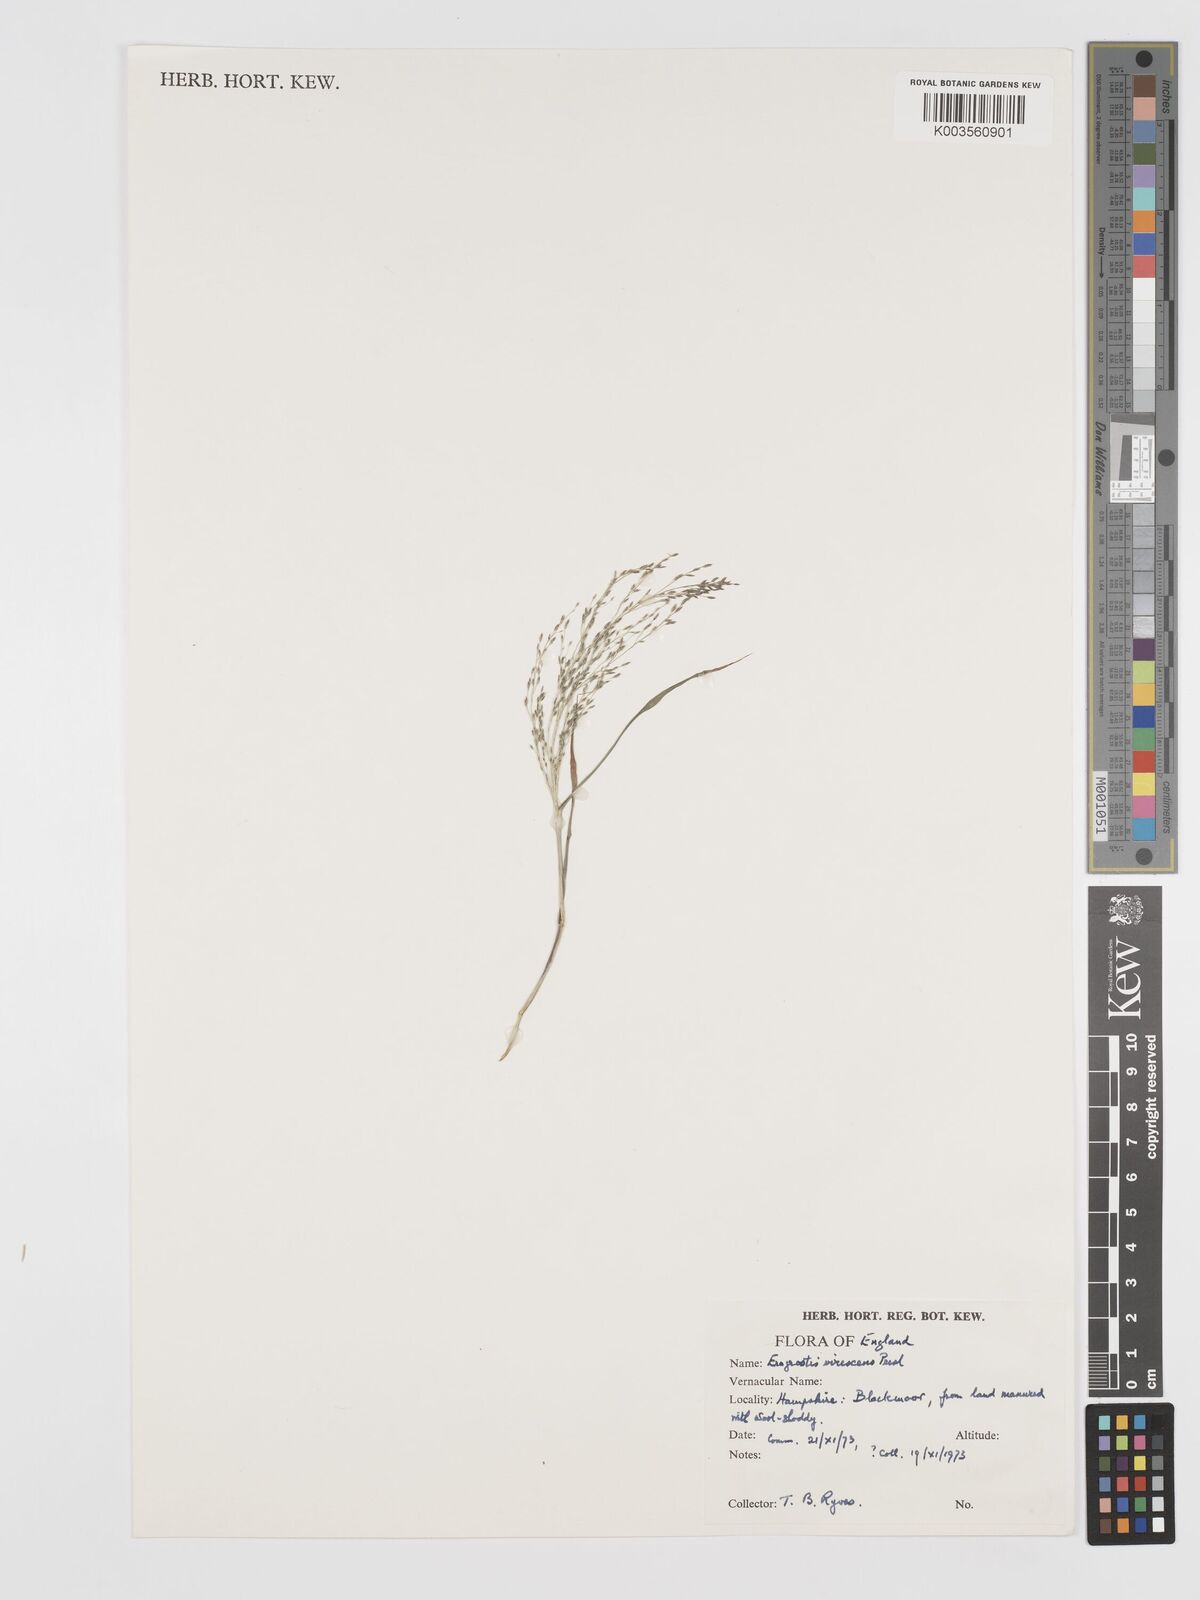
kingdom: Plantae
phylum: Tracheophyta
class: Liliopsida
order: Poales
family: Poaceae
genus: Eragrostis
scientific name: Eragrostis mexicana
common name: Mexican love grass
